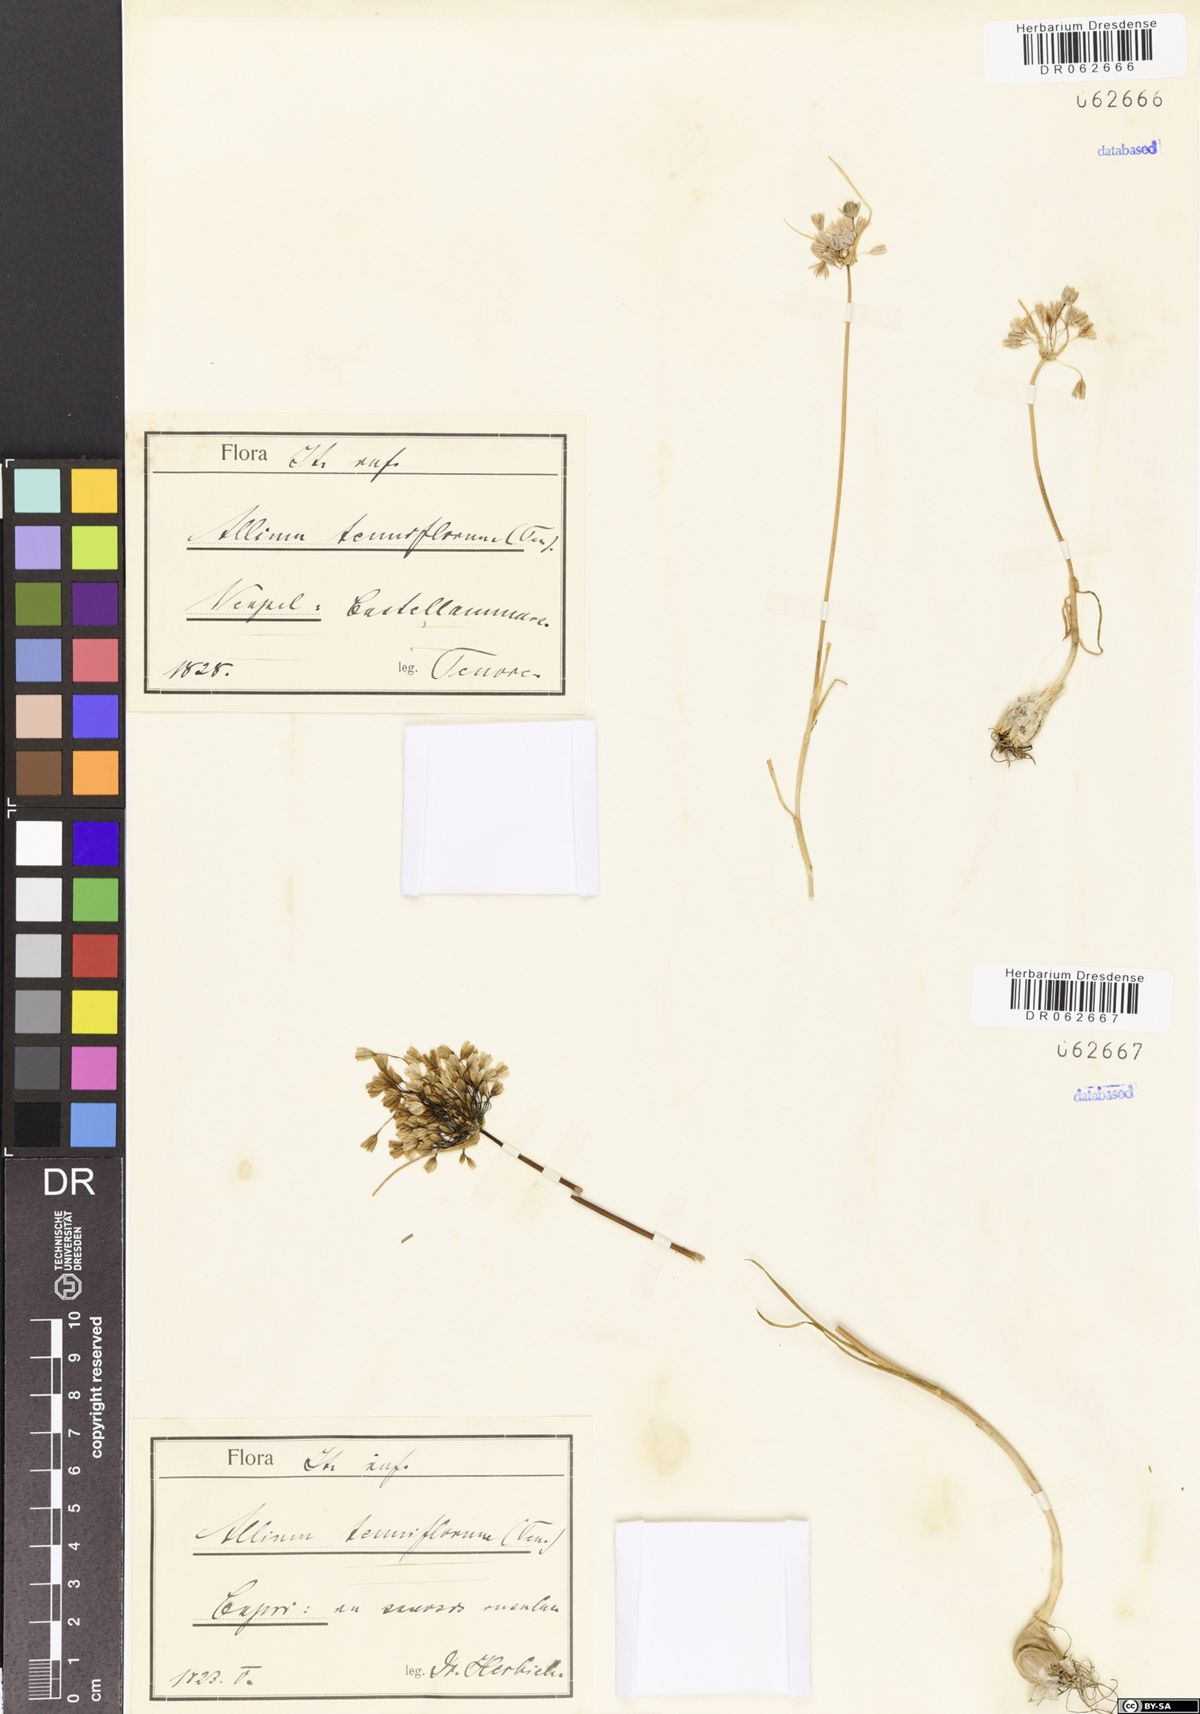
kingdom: Plantae
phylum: Tracheophyta
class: Liliopsida
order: Asparagales
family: Amaryllidaceae
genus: Allium
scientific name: Allium tenuiflorum
